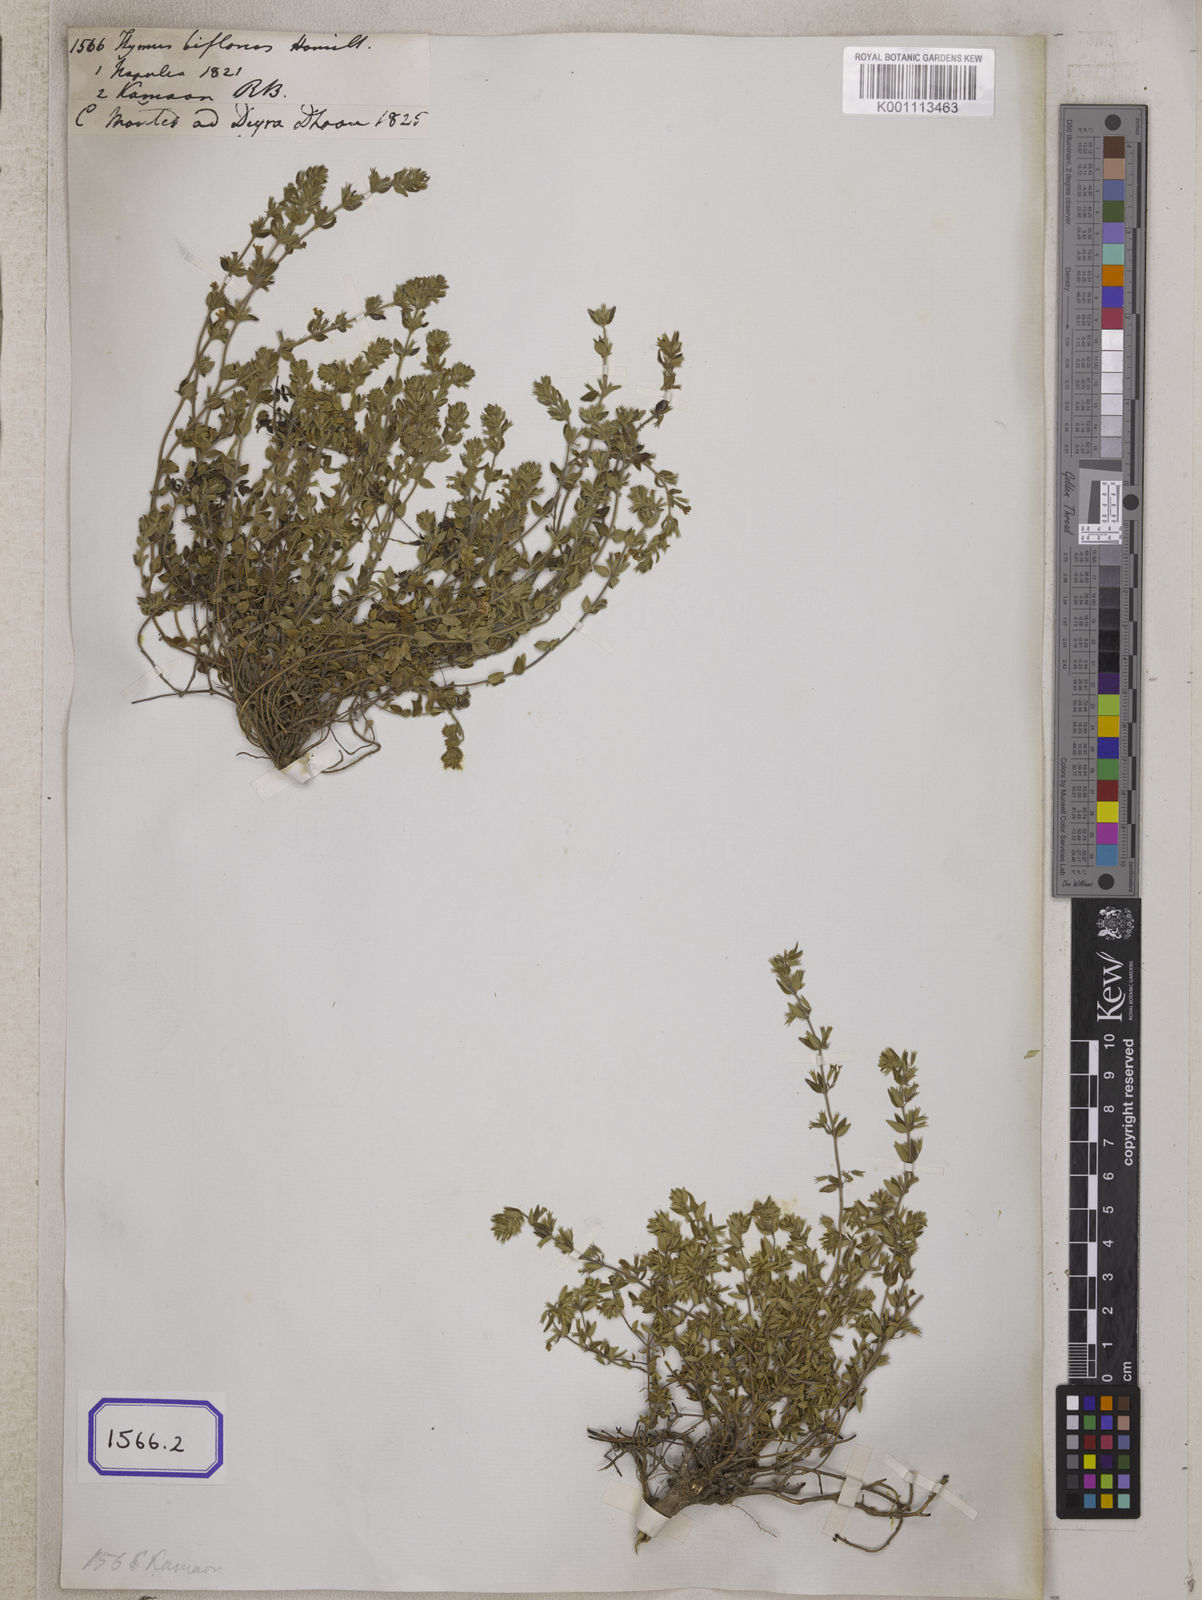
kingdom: Plantae
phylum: Tracheophyta
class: Magnoliopsida
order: Lamiales
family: Lamiaceae
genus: Thymus
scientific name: Thymus
